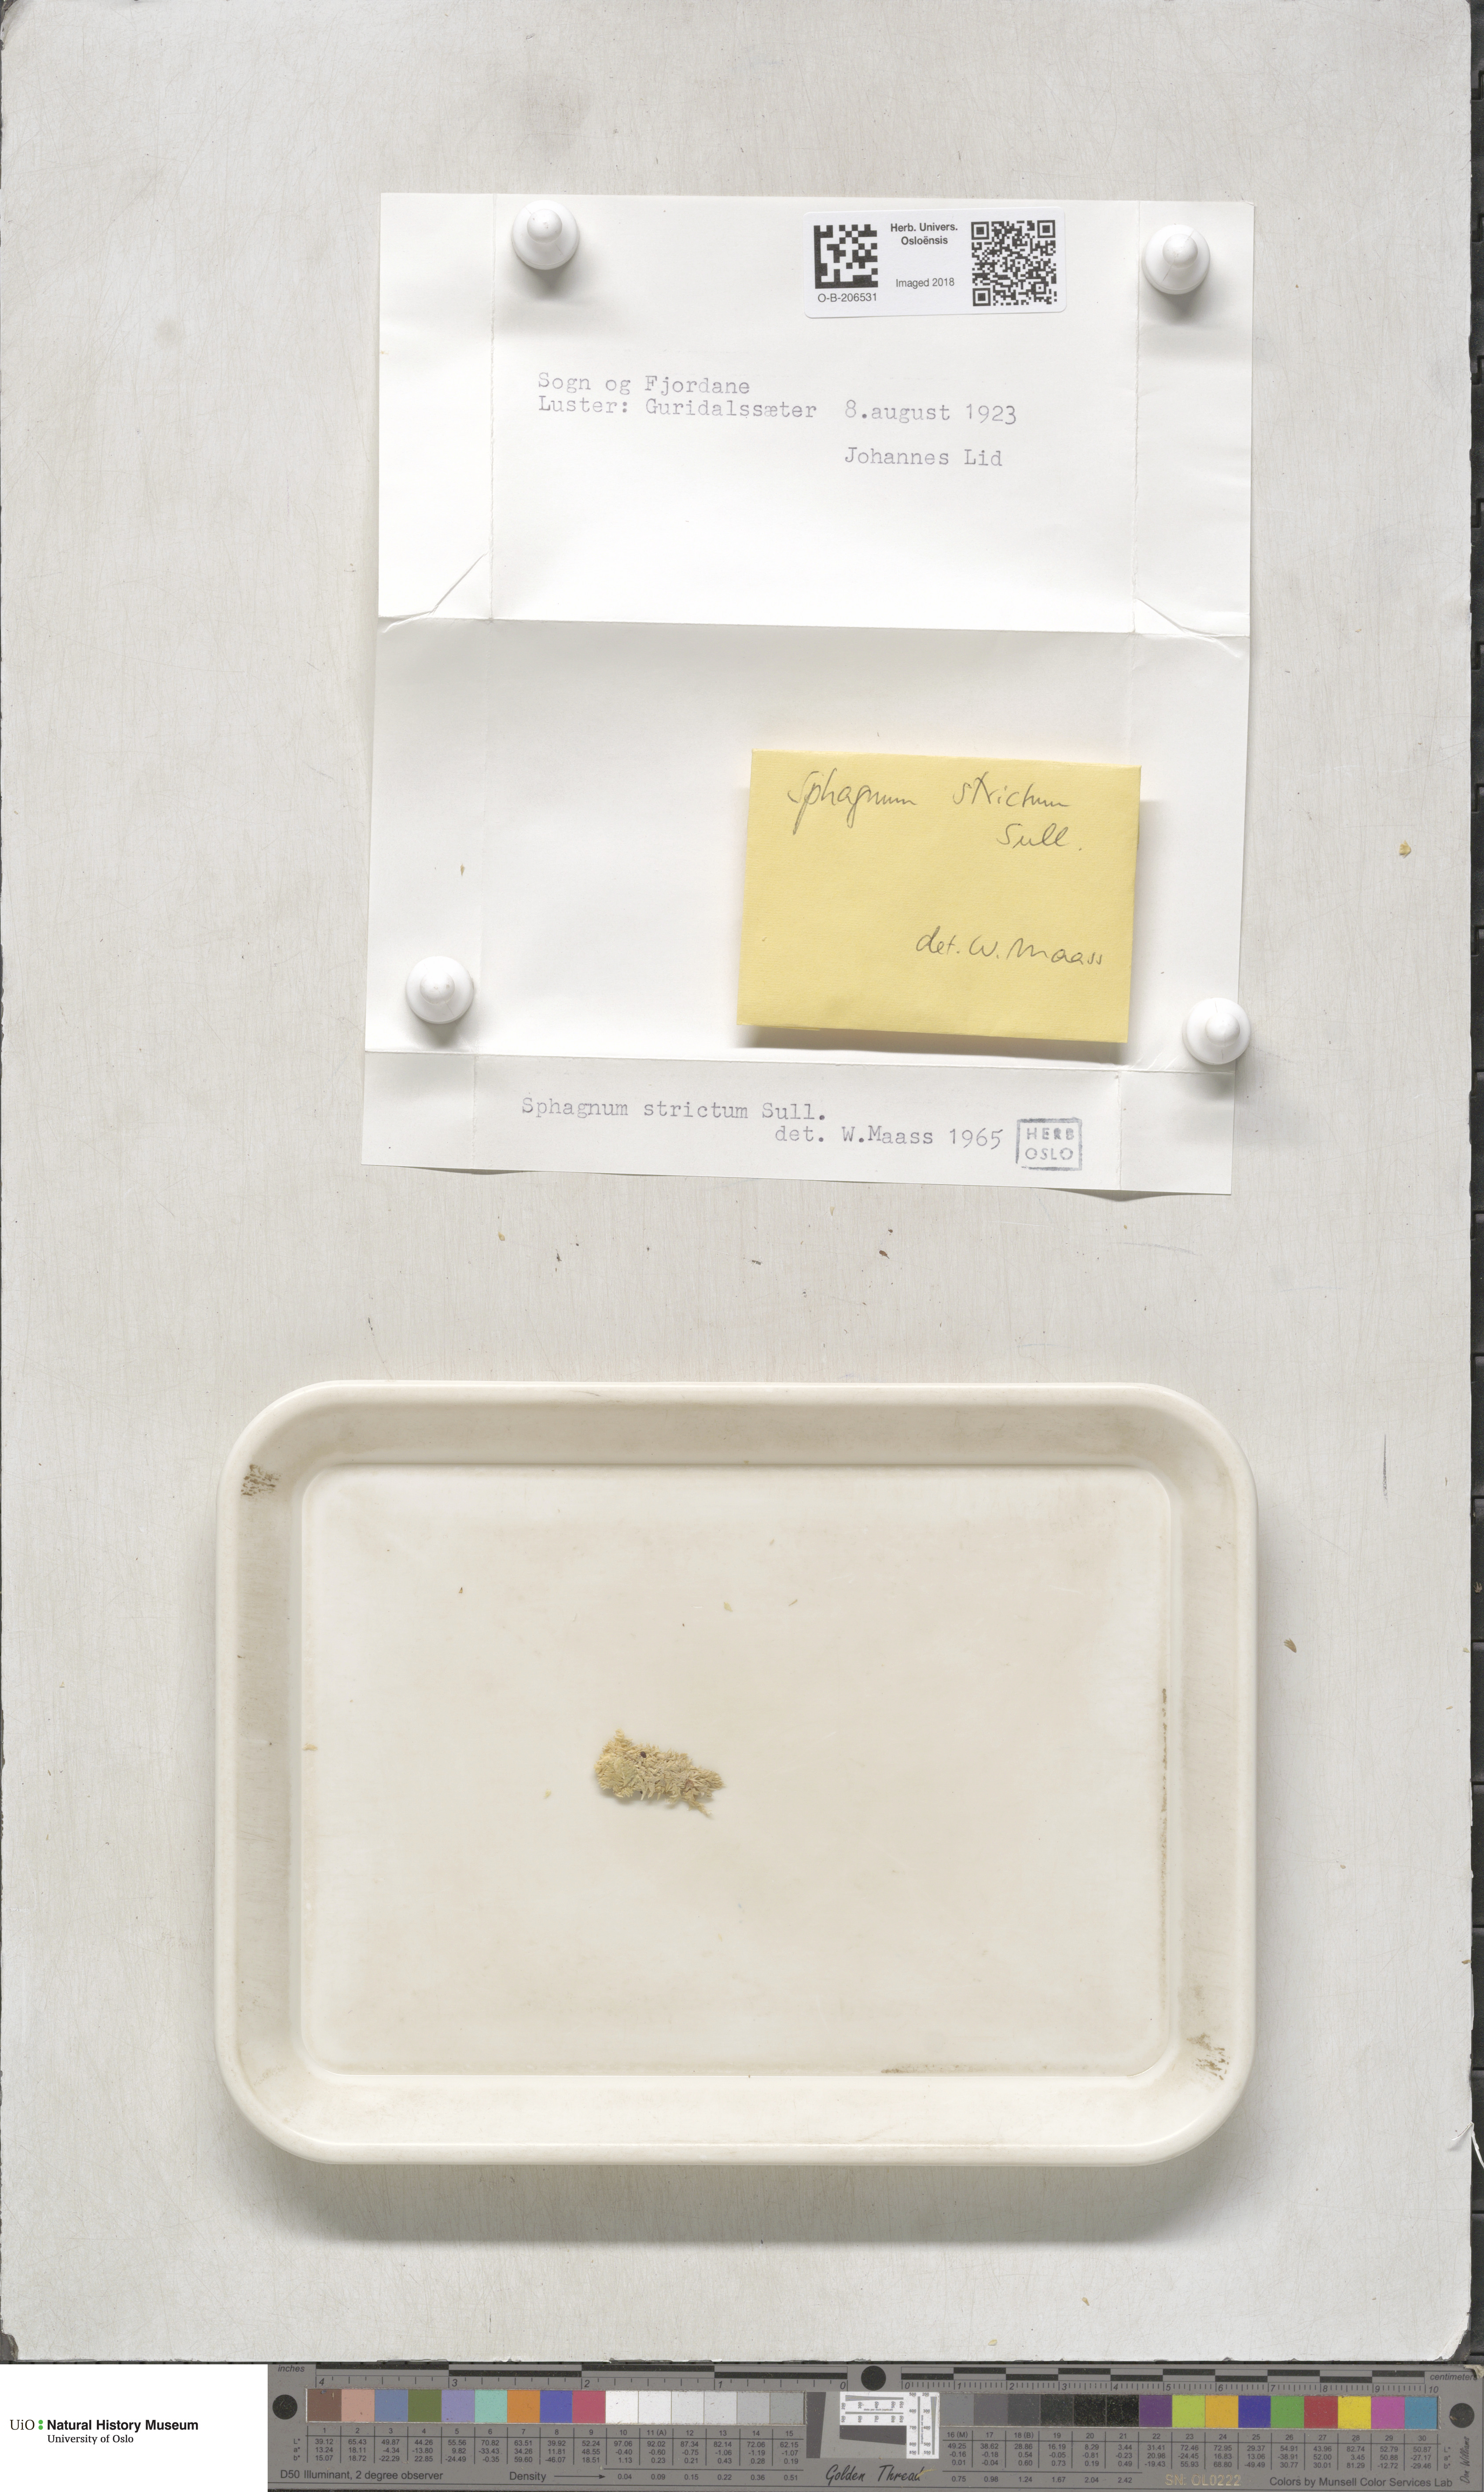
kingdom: Plantae
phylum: Bryophyta
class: Sphagnopsida
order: Sphagnales
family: Sphagnaceae
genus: Sphagnum
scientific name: Sphagnum strictum
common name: Pale bog-moss
